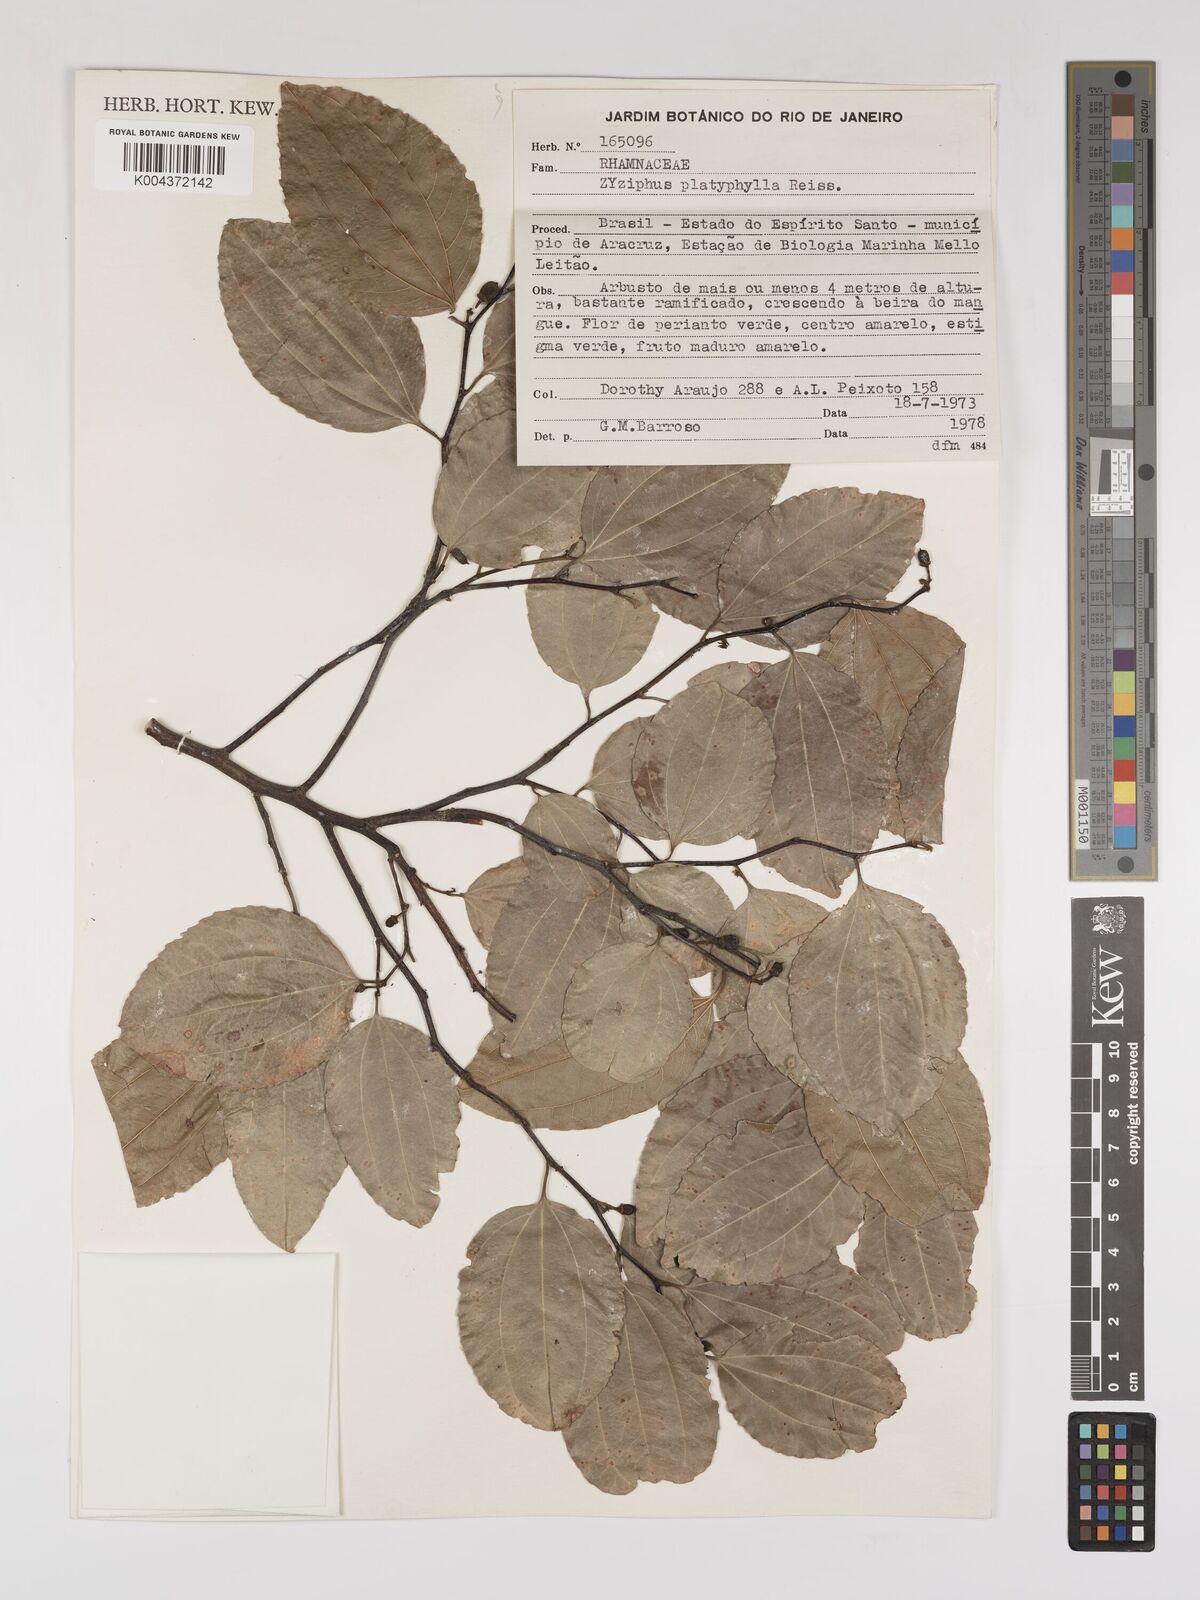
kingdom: Plantae
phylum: Tracheophyta
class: Magnoliopsida
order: Rosales
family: Rhamnaceae
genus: Sarcomphalus
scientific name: Sarcomphalus platyphyllus
